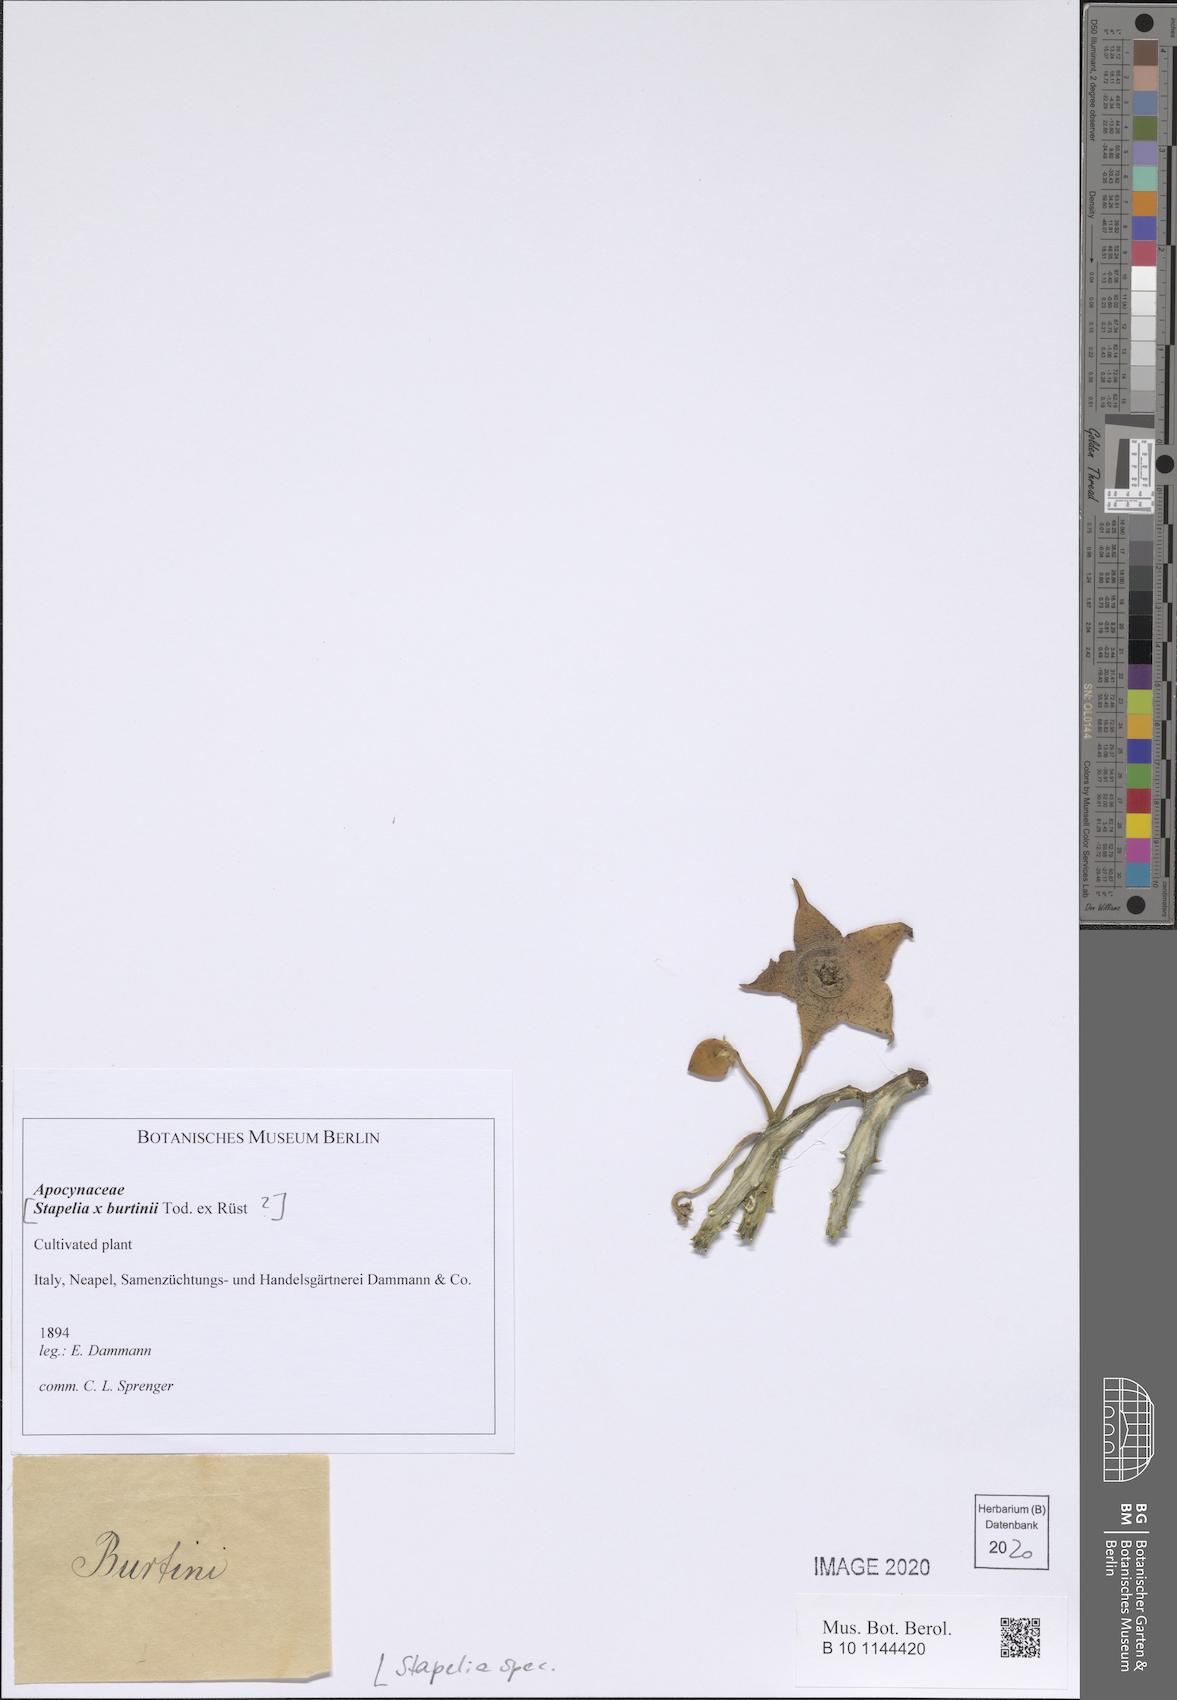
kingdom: Plantae
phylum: Tracheophyta
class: Magnoliopsida
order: Gentianales
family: Apocynaceae
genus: Stapelia
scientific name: Stapelia
